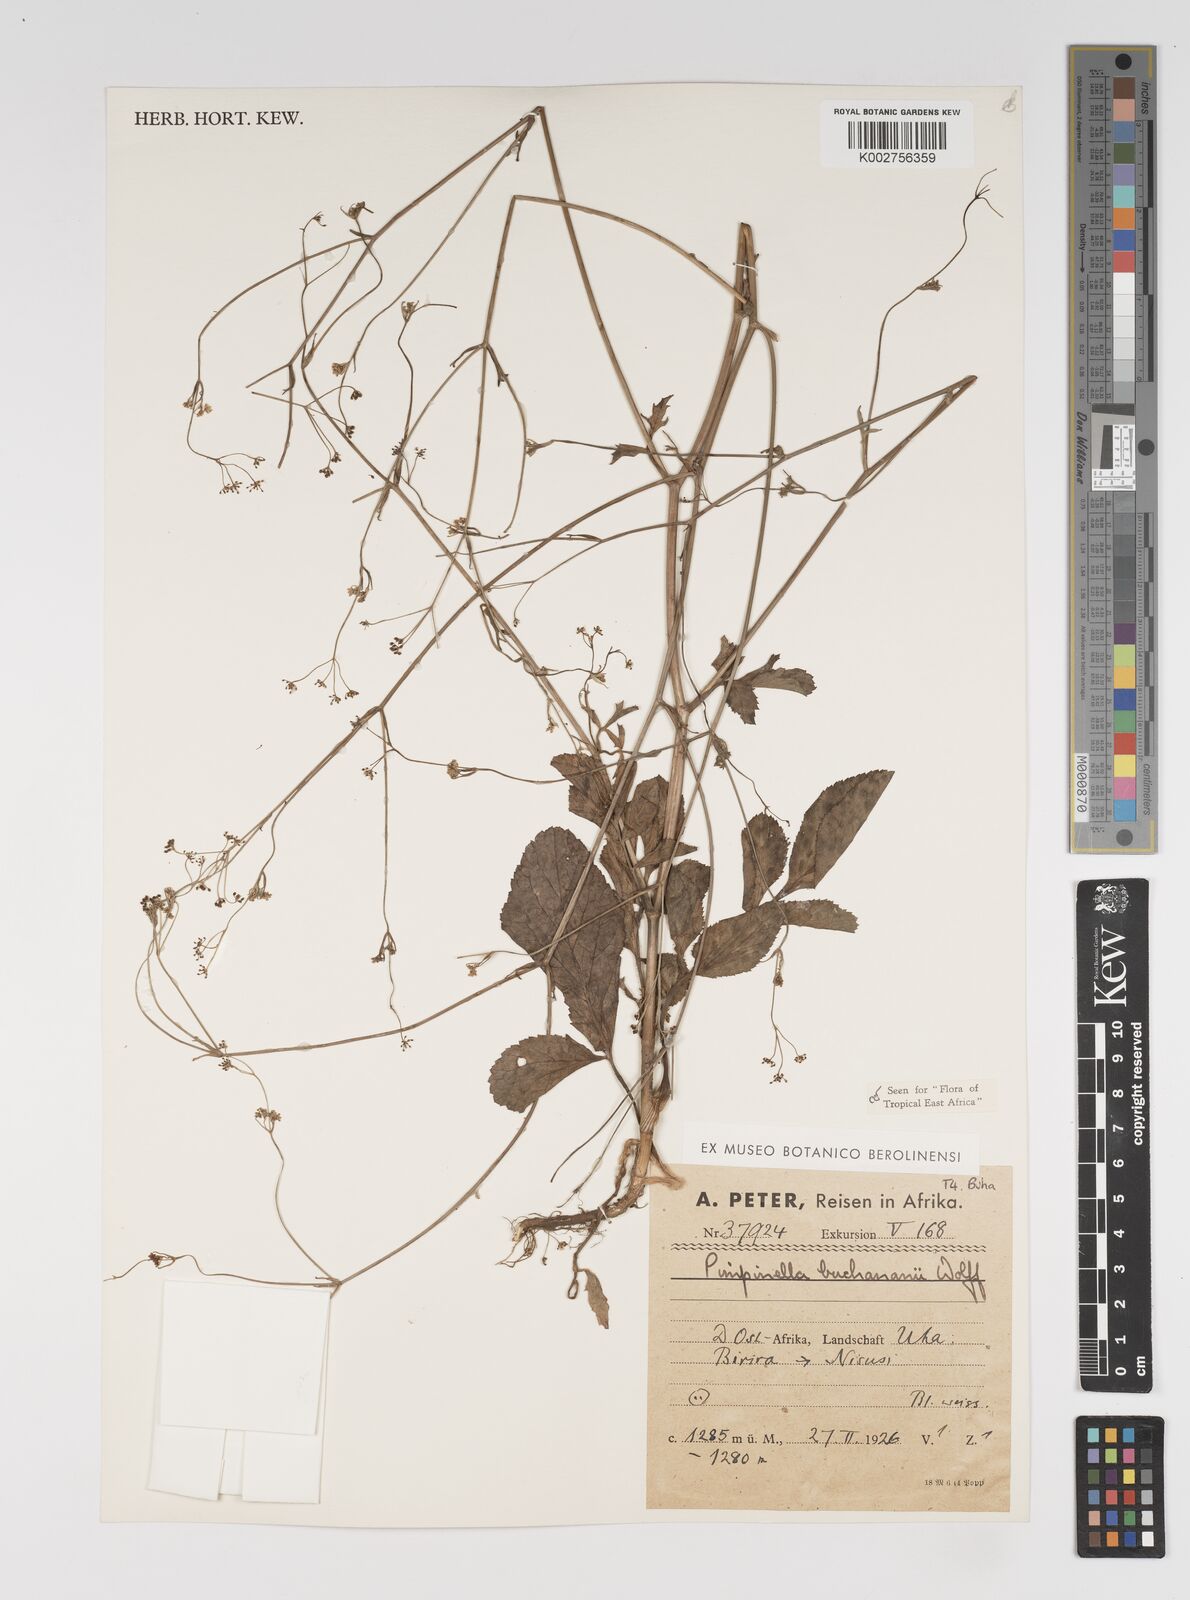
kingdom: Plantae
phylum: Tracheophyta
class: Magnoliopsida
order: Apiales
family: Apiaceae
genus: Pimpinella
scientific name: Pimpinella buchananii
